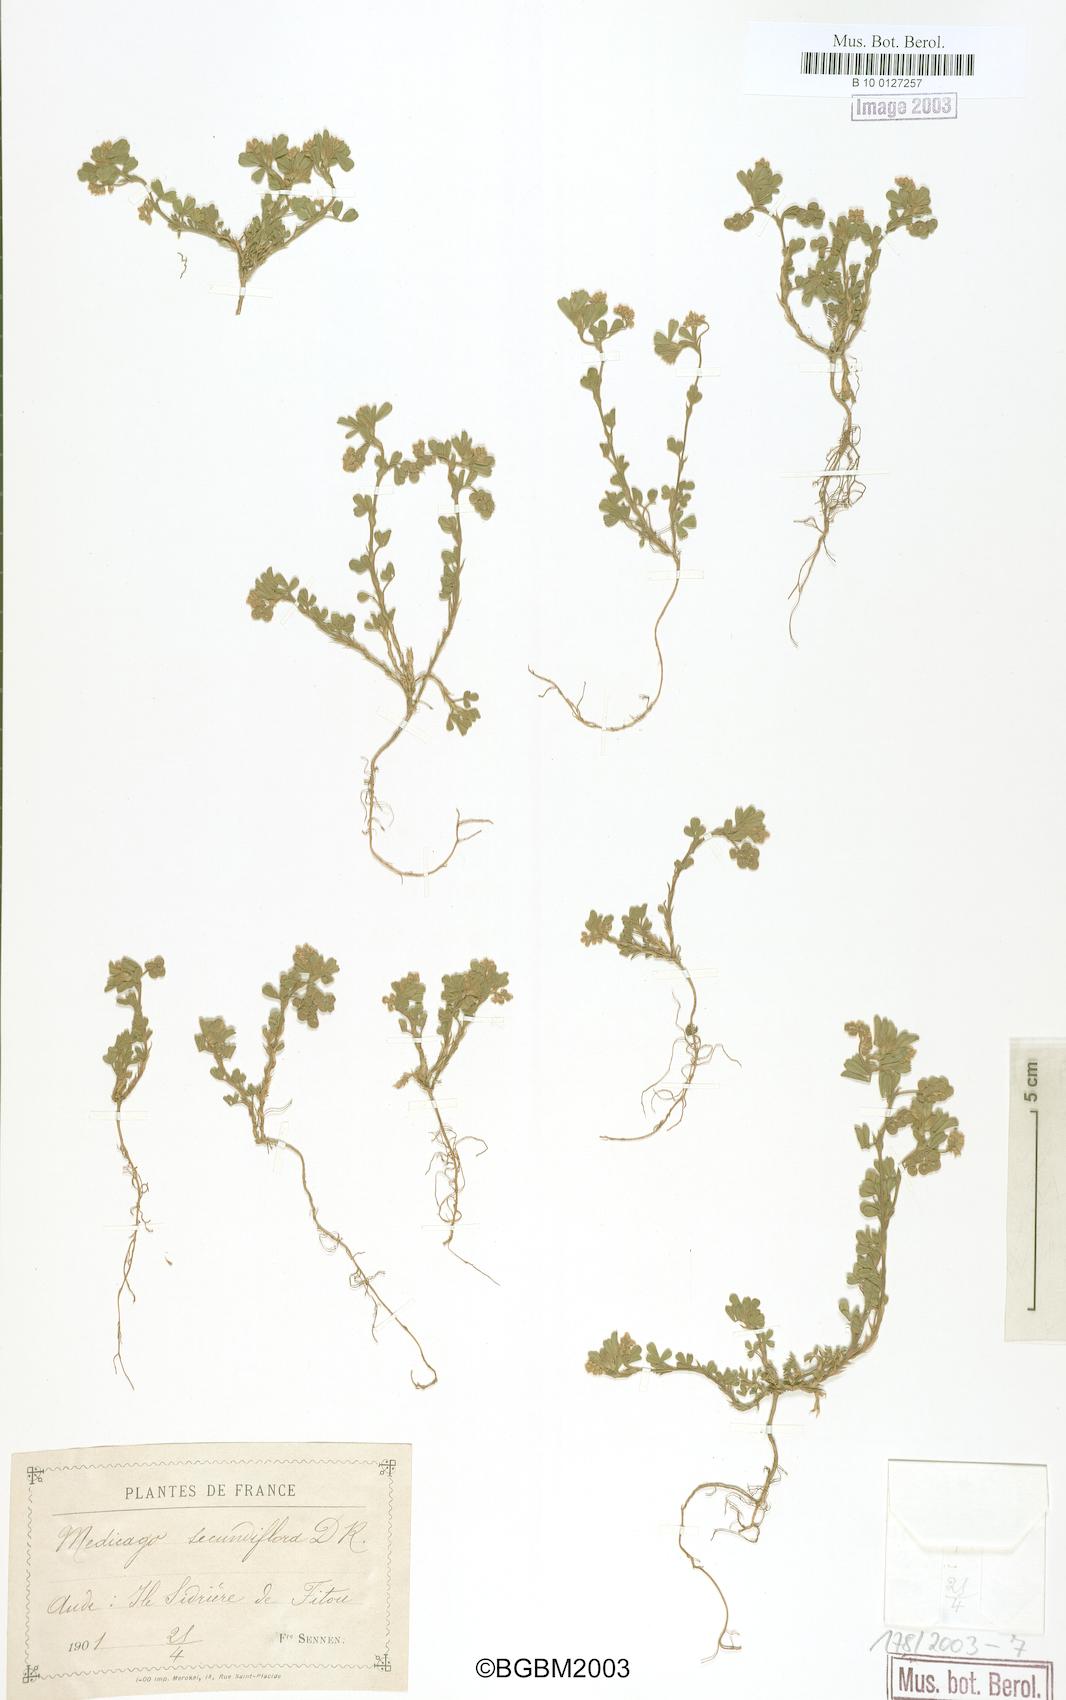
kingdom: Plantae
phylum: Tracheophyta
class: Magnoliopsida
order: Fabales
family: Fabaceae
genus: Medicago
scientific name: Medicago secundiflora
